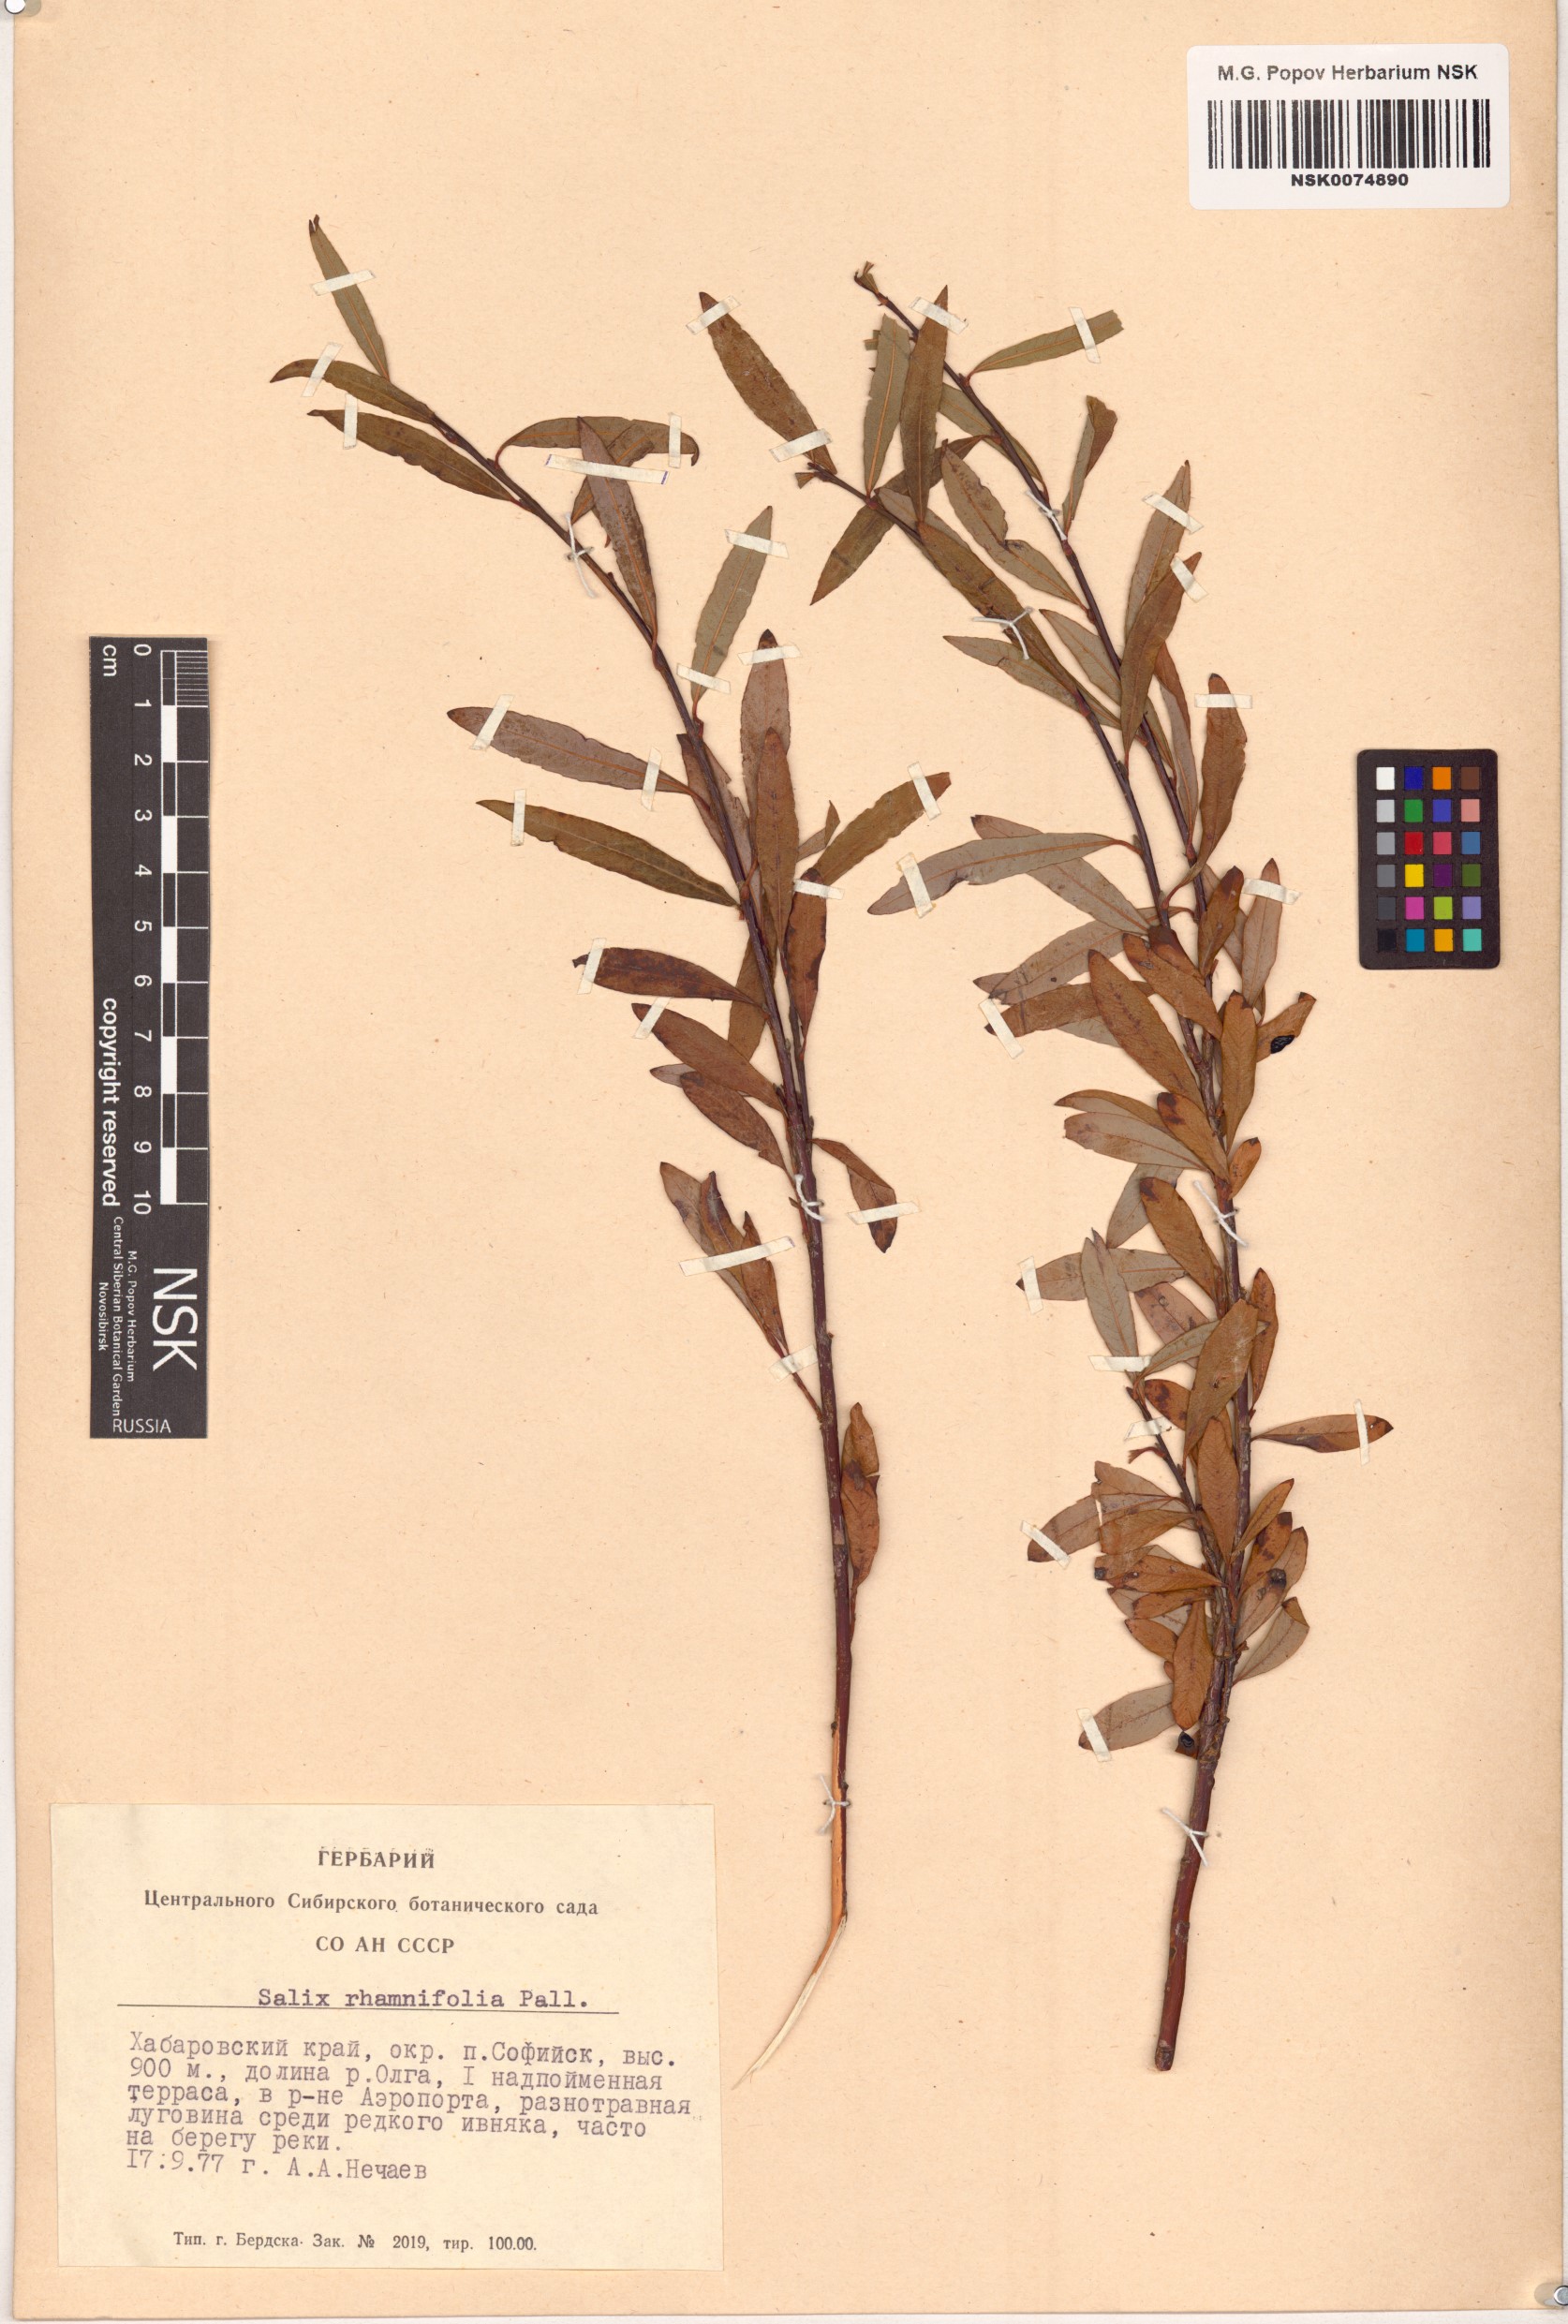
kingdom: Plantae
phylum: Tracheophyta
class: Magnoliopsida
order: Malpighiales
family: Salicaceae
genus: Salix
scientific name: Salix rhamnifolia
